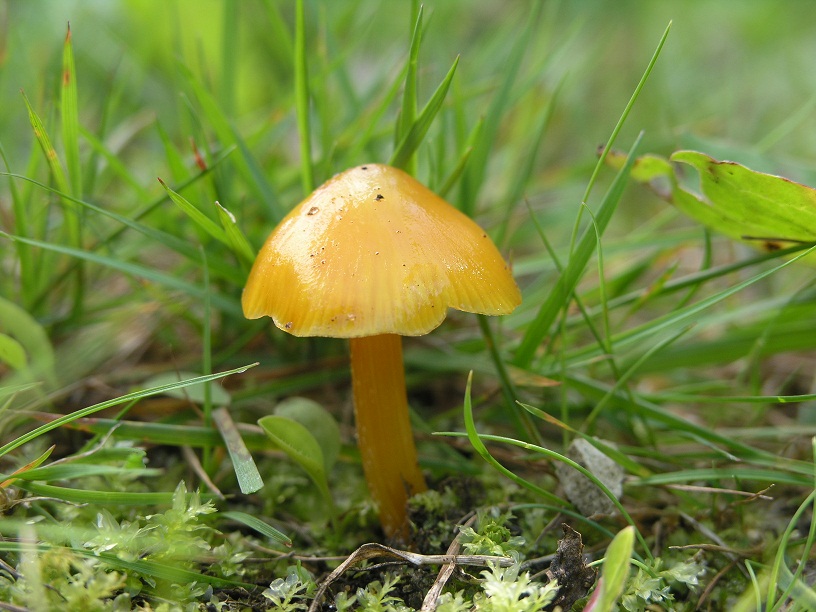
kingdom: Fungi
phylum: Basidiomycota
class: Agaricomycetes
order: Agaricales
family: Hygrophoraceae
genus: Hygrocybe
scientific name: Hygrocybe chlorophana
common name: gul vokshat
